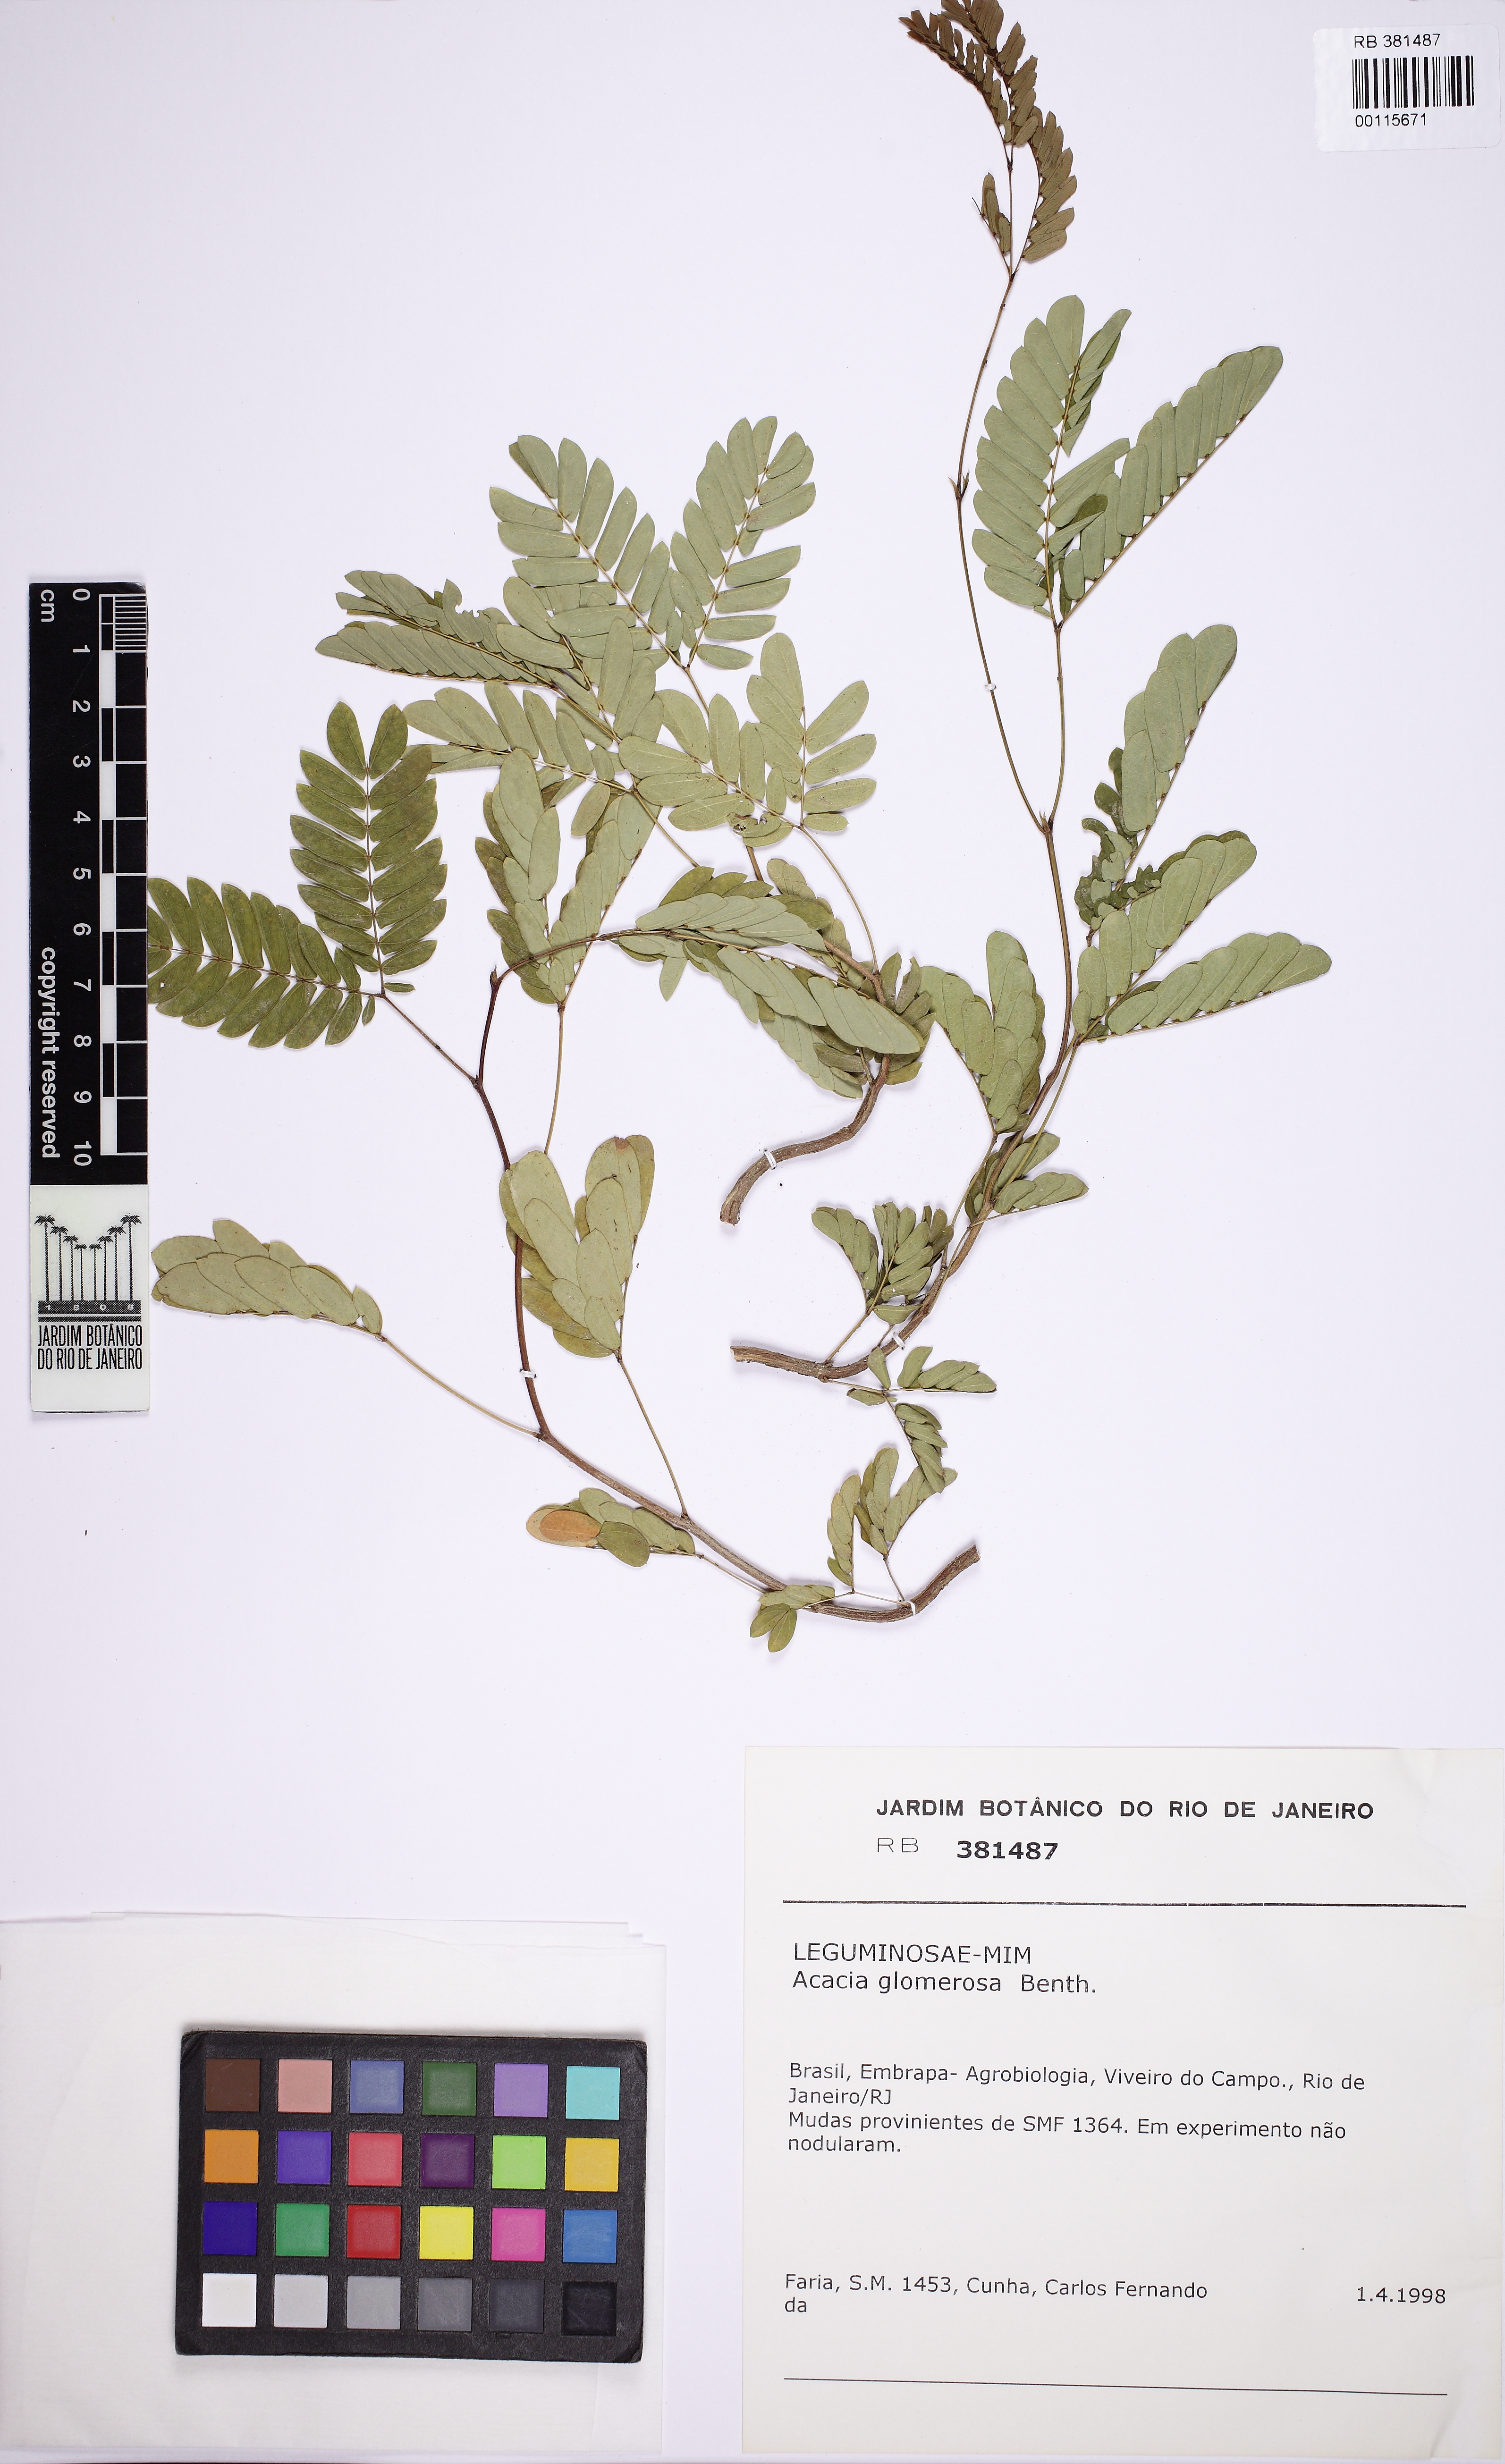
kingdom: Plantae
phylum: Tracheophyta
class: Magnoliopsida
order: Fabales
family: Fabaceae
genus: Senegalia
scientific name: Senegalia polyphylla
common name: White-tamarind
